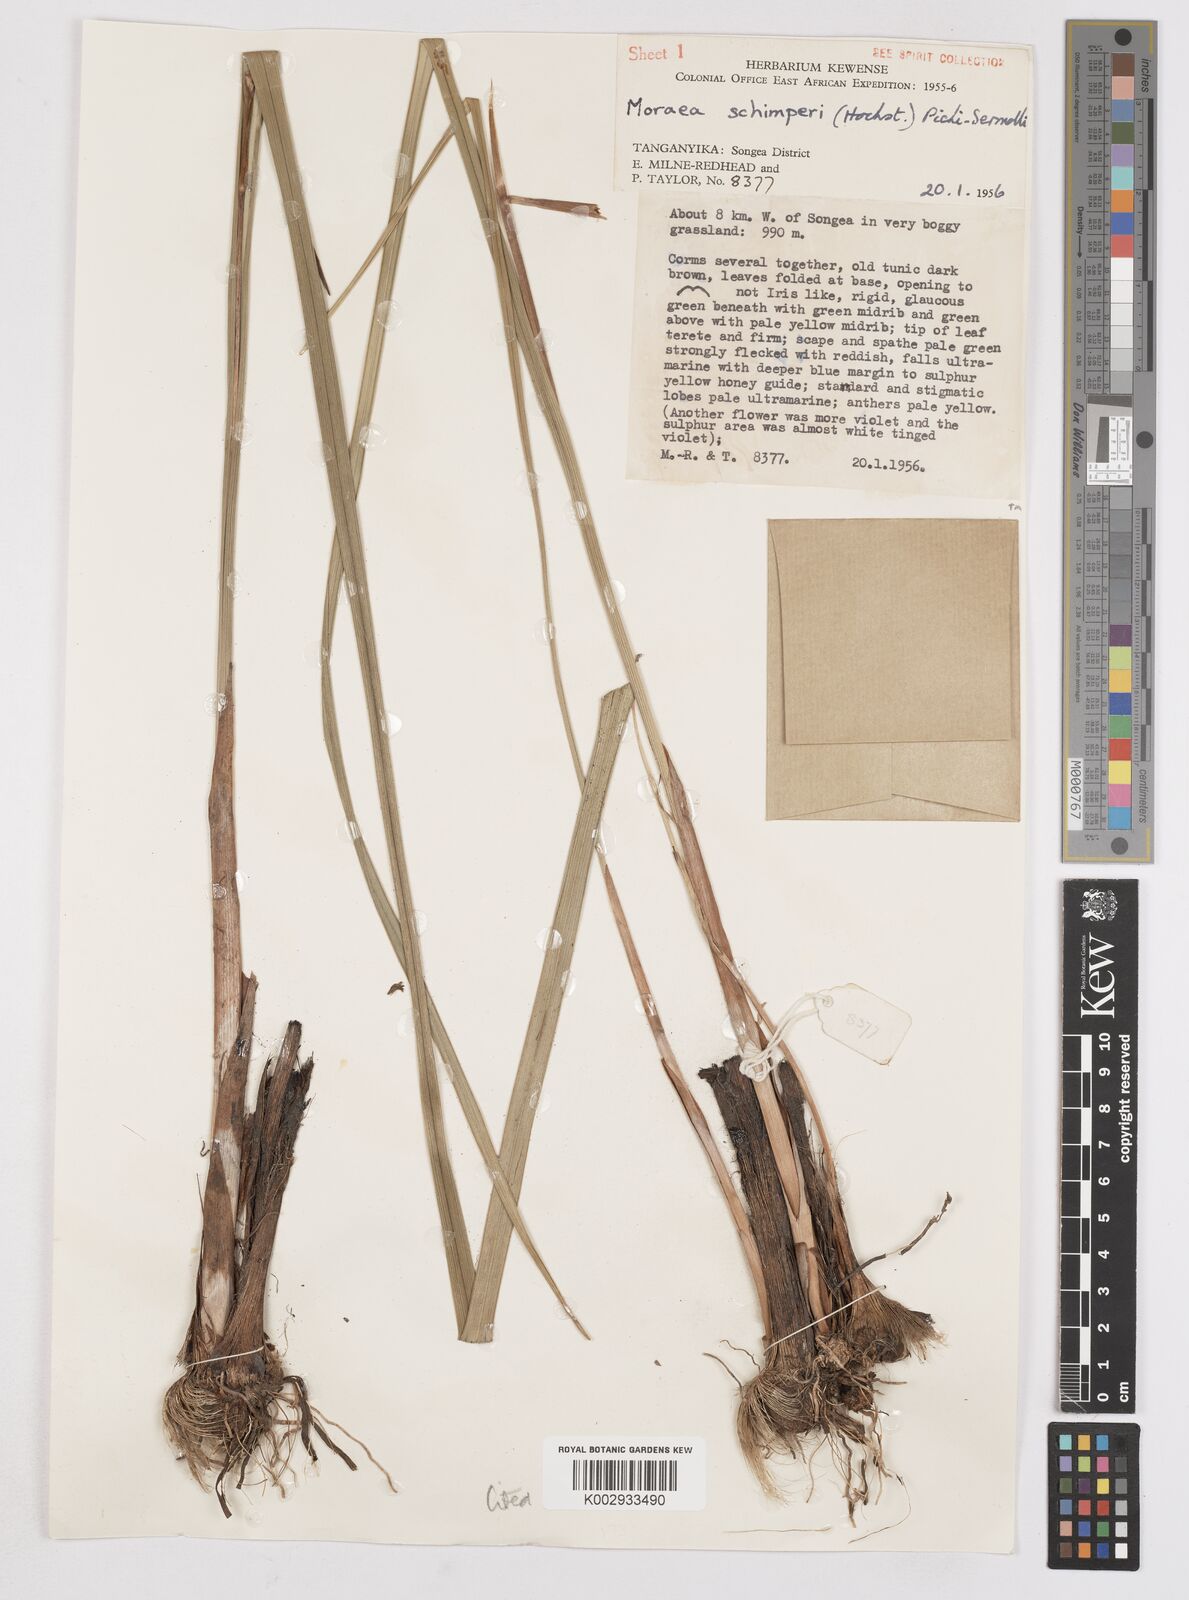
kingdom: Plantae
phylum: Tracheophyta
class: Liliopsida
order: Asparagales
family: Iridaceae
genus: Moraea
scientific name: Moraea schimperi
